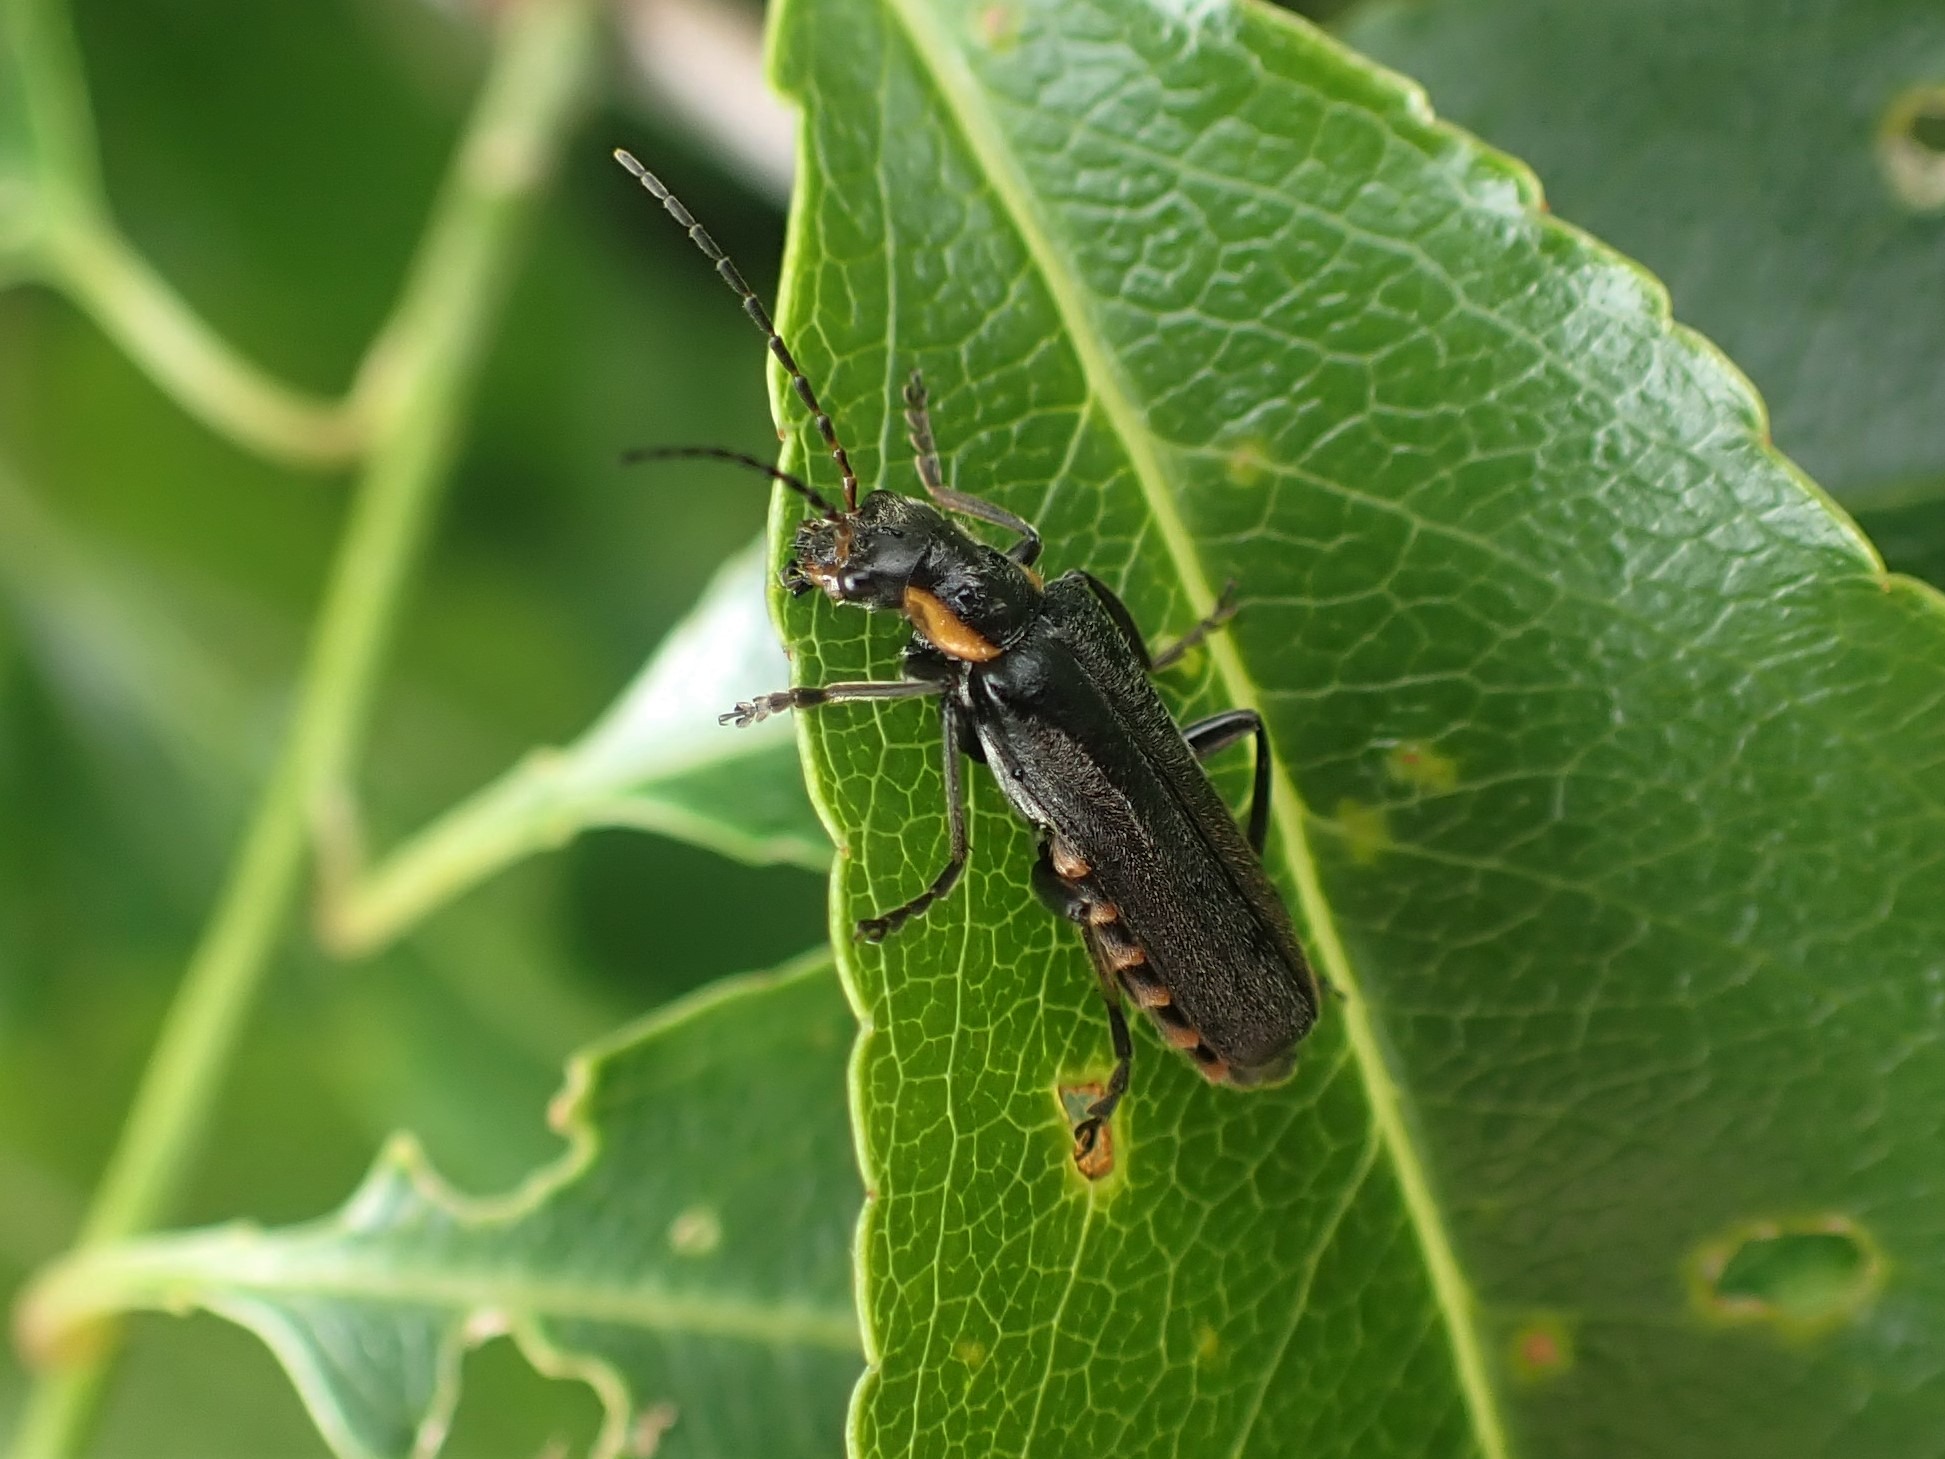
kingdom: Animalia
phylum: Arthropoda
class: Insecta
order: Coleoptera
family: Cantharidae
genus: Cantharis
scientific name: Cantharis obscura
